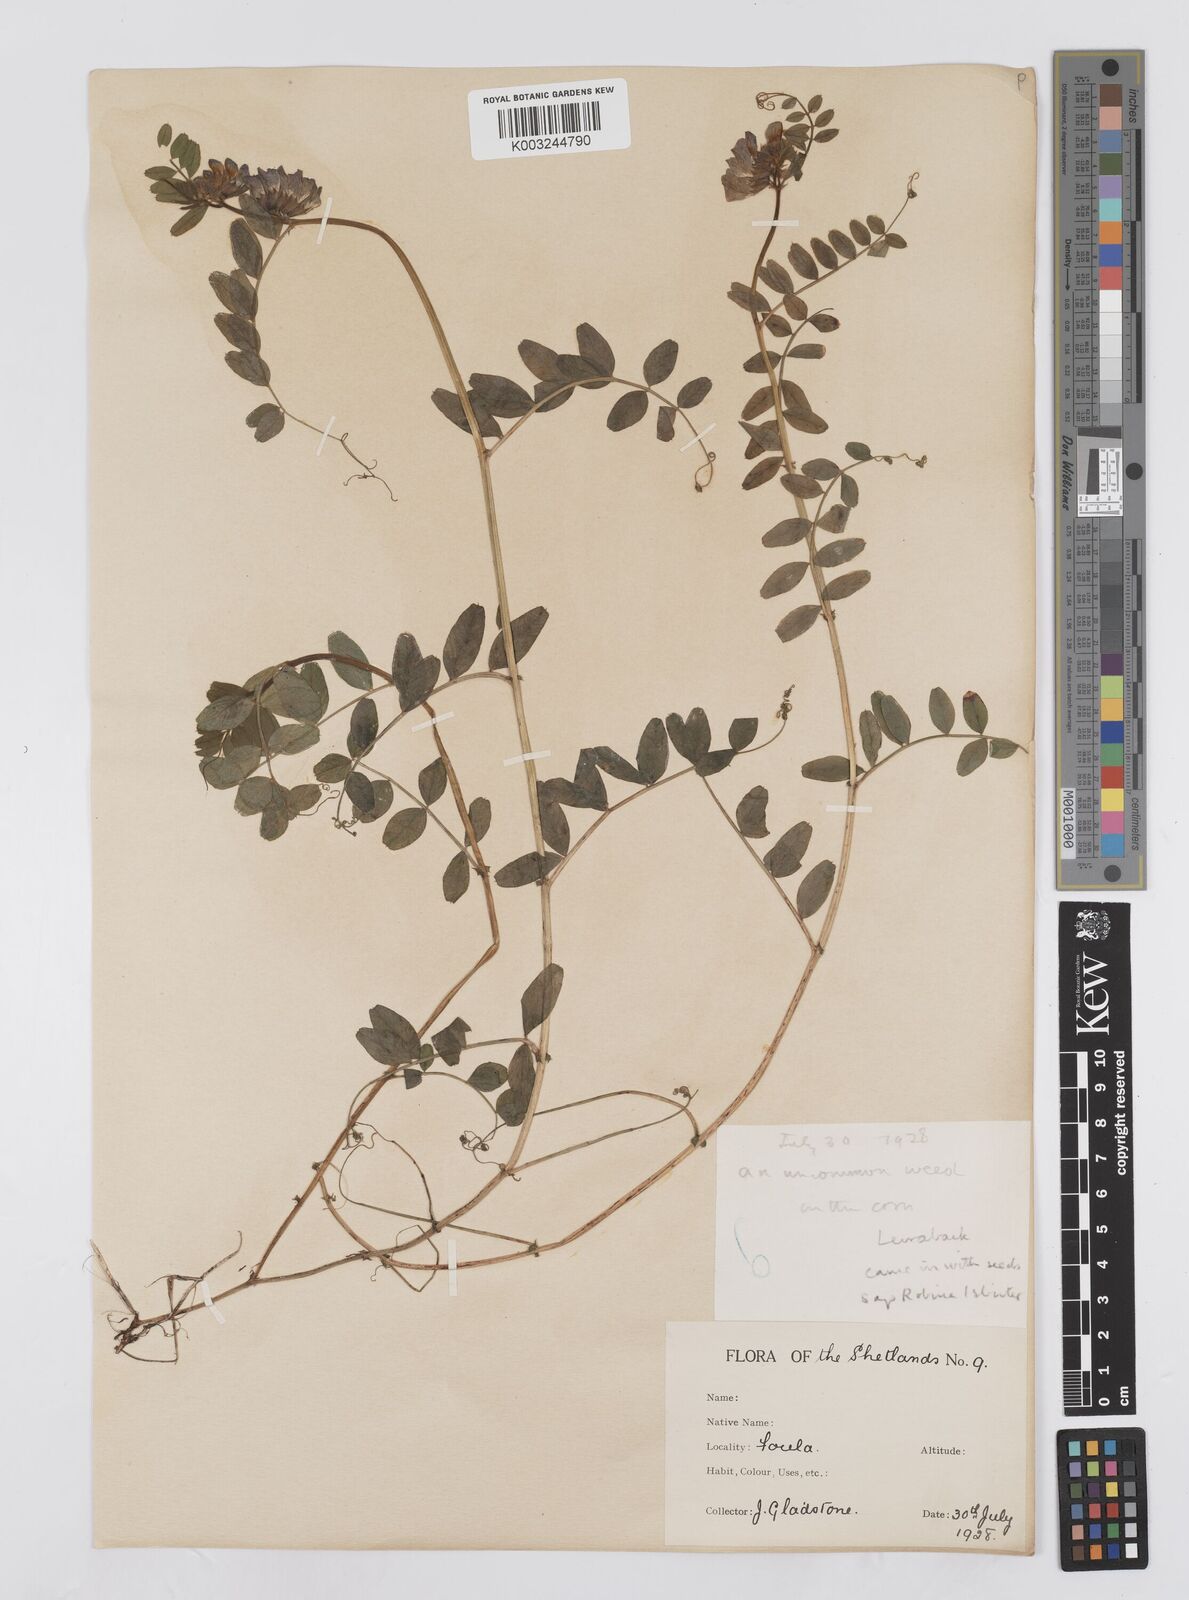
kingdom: Plantae
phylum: Tracheophyta
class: Magnoliopsida
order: Fabales
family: Fabaceae
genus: Vicia
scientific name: Vicia sepium
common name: Bush vetch
